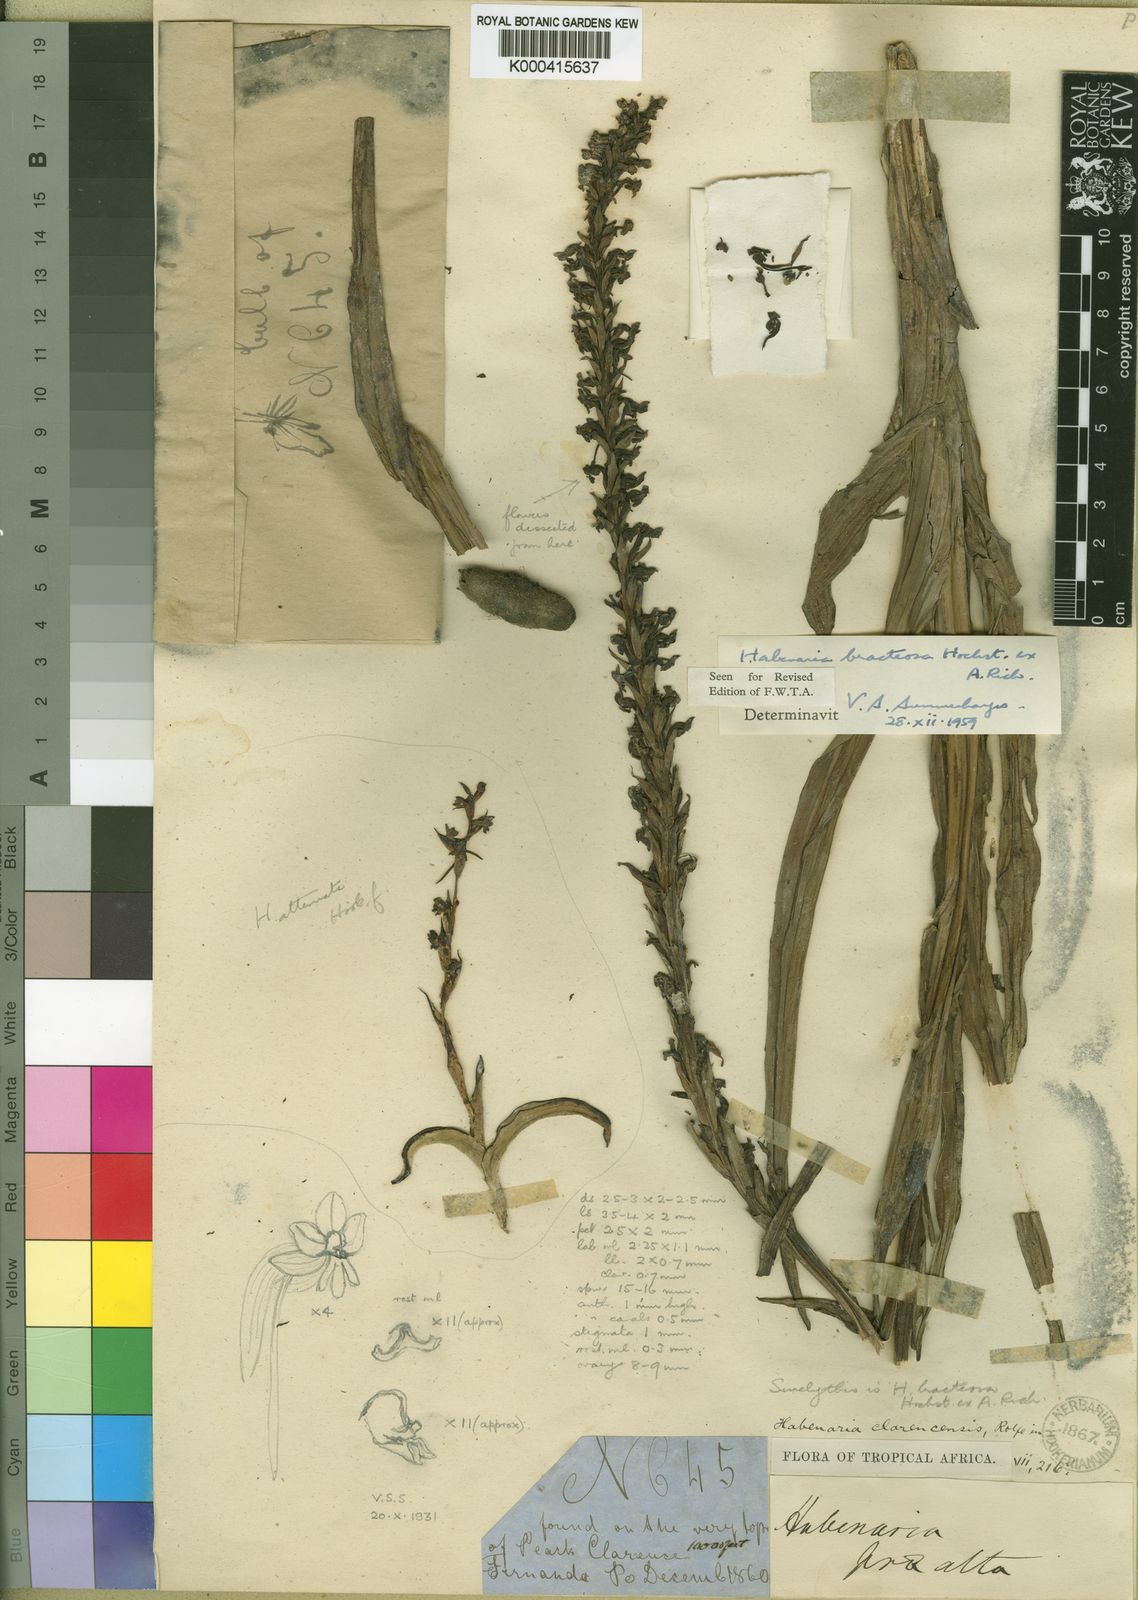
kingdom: Plantae
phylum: Tracheophyta
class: Liliopsida
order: Asparagales
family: Orchidaceae
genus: Habenaria
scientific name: Habenaria bracteosa
